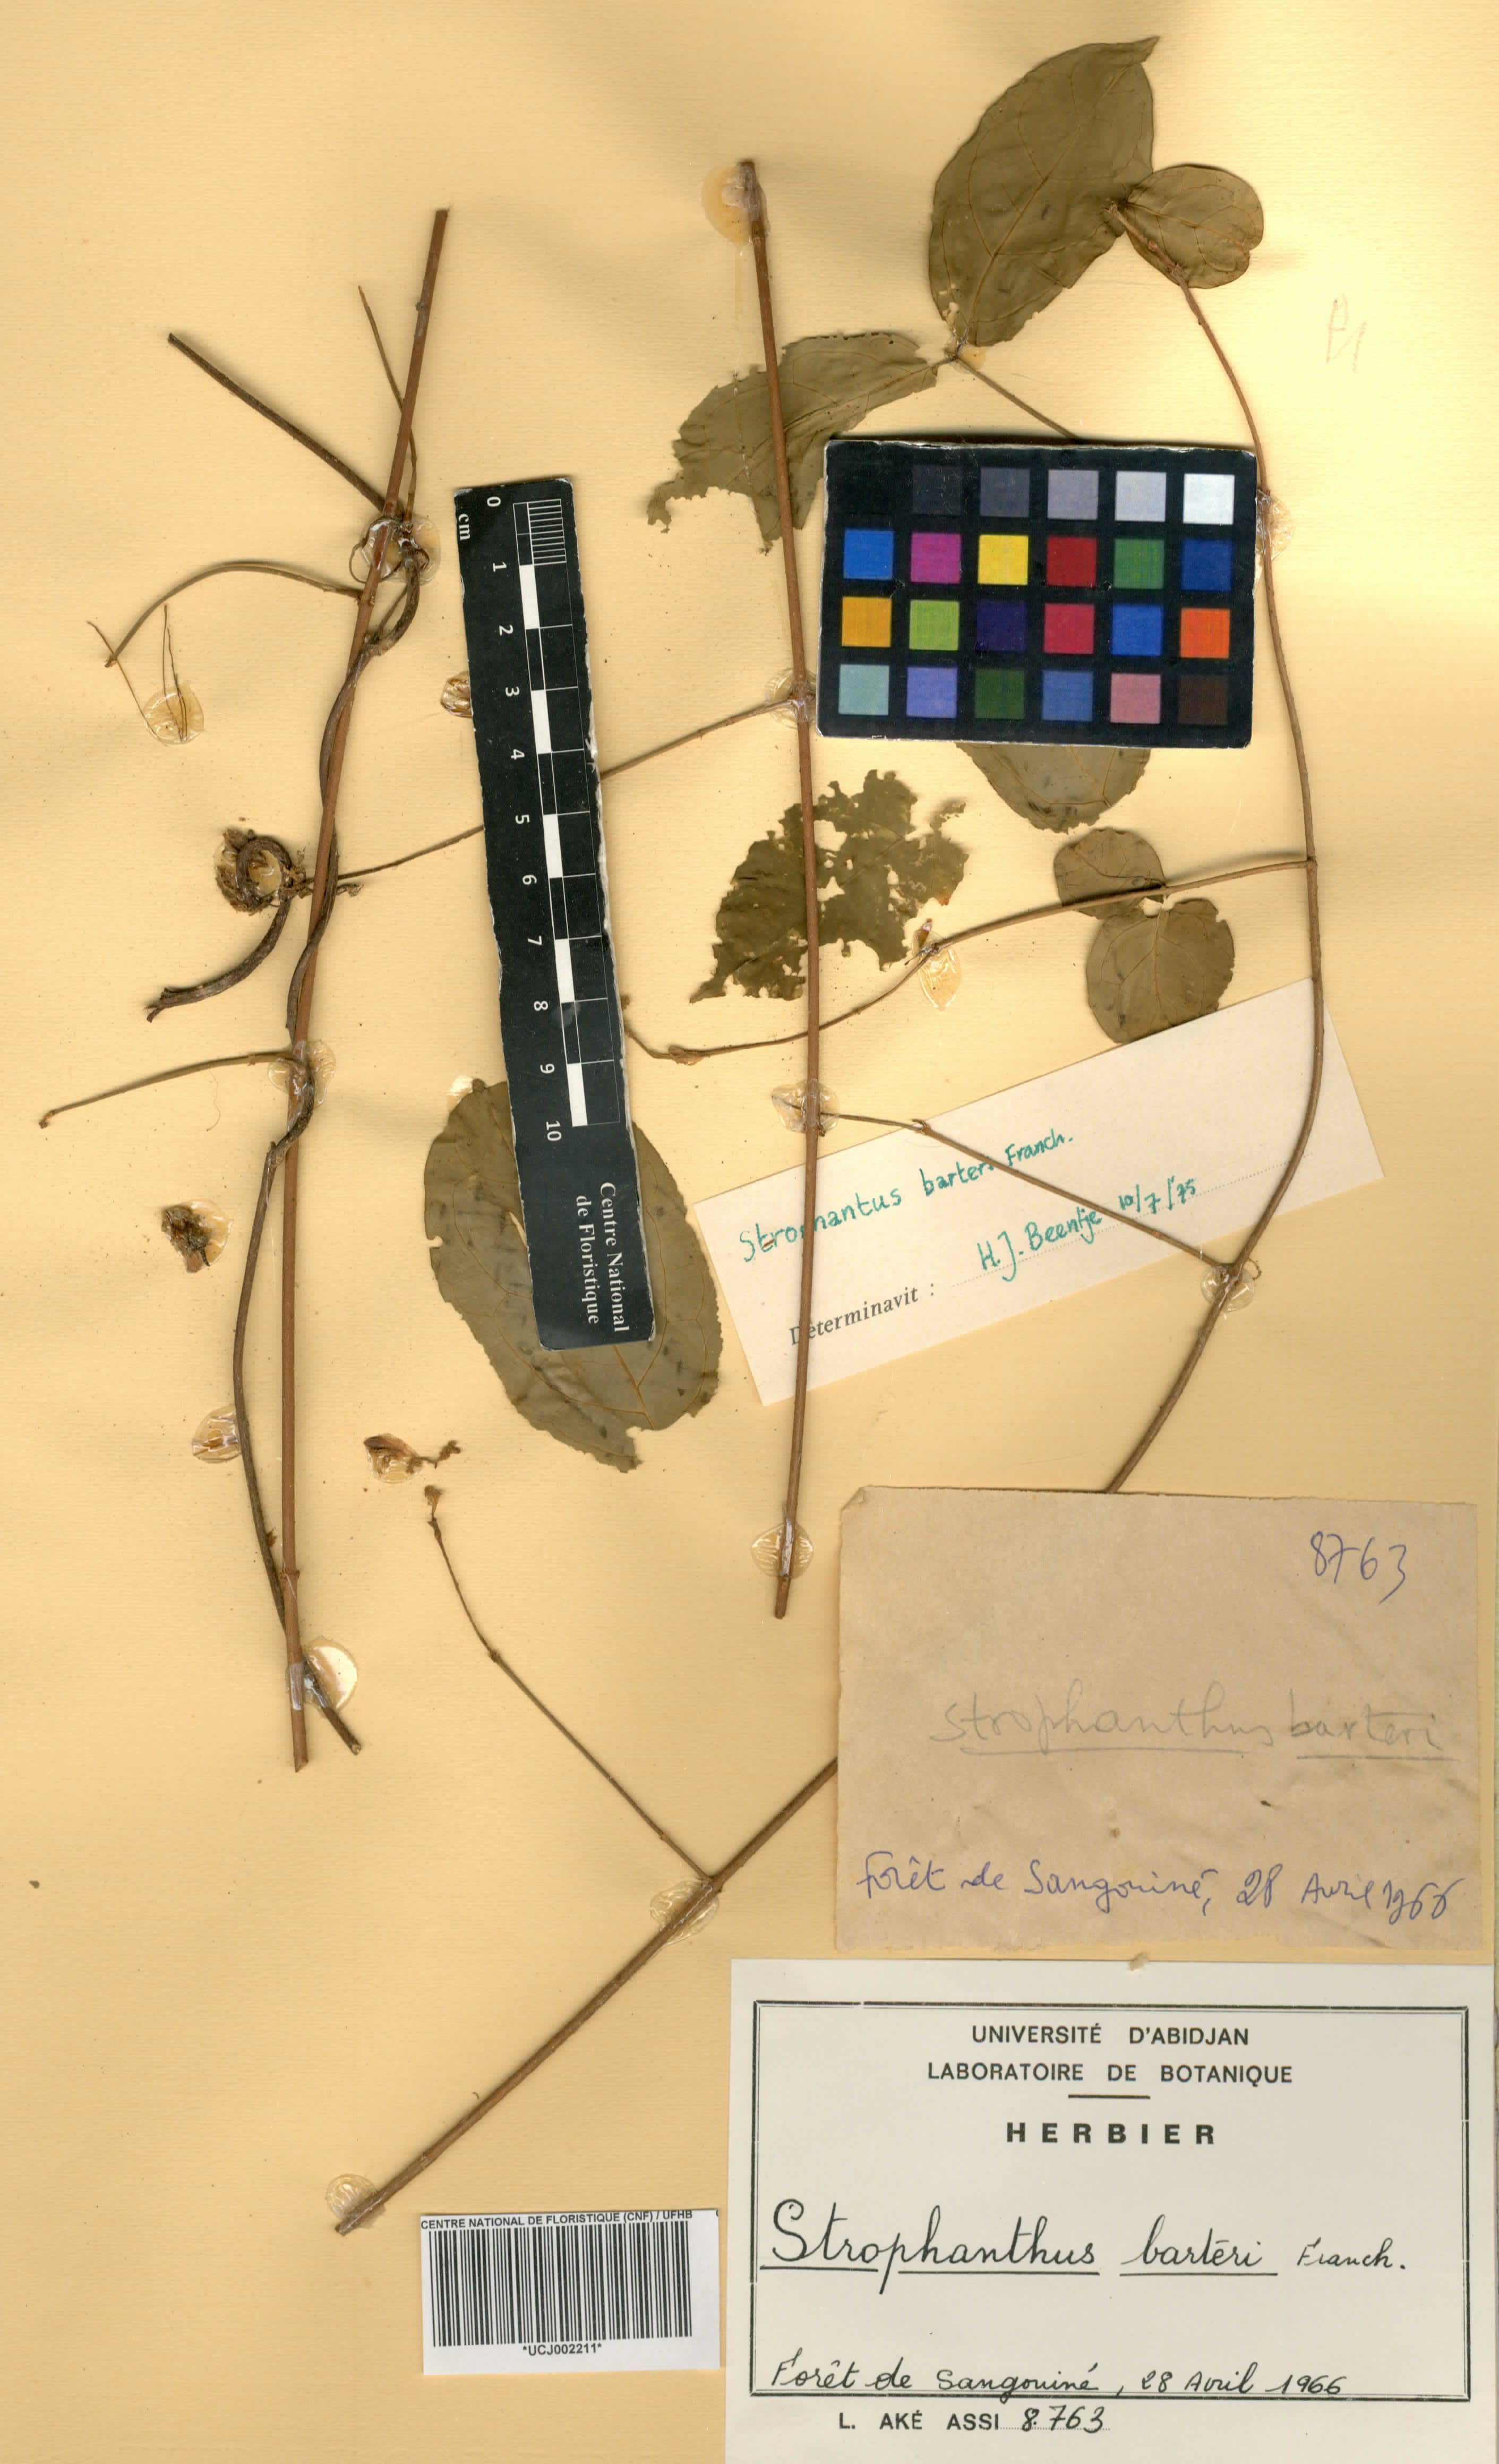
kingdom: Plantae
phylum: Tracheophyta
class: Magnoliopsida
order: Gentianales
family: Apocynaceae
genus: Strophanthus
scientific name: Strophanthus barteri
